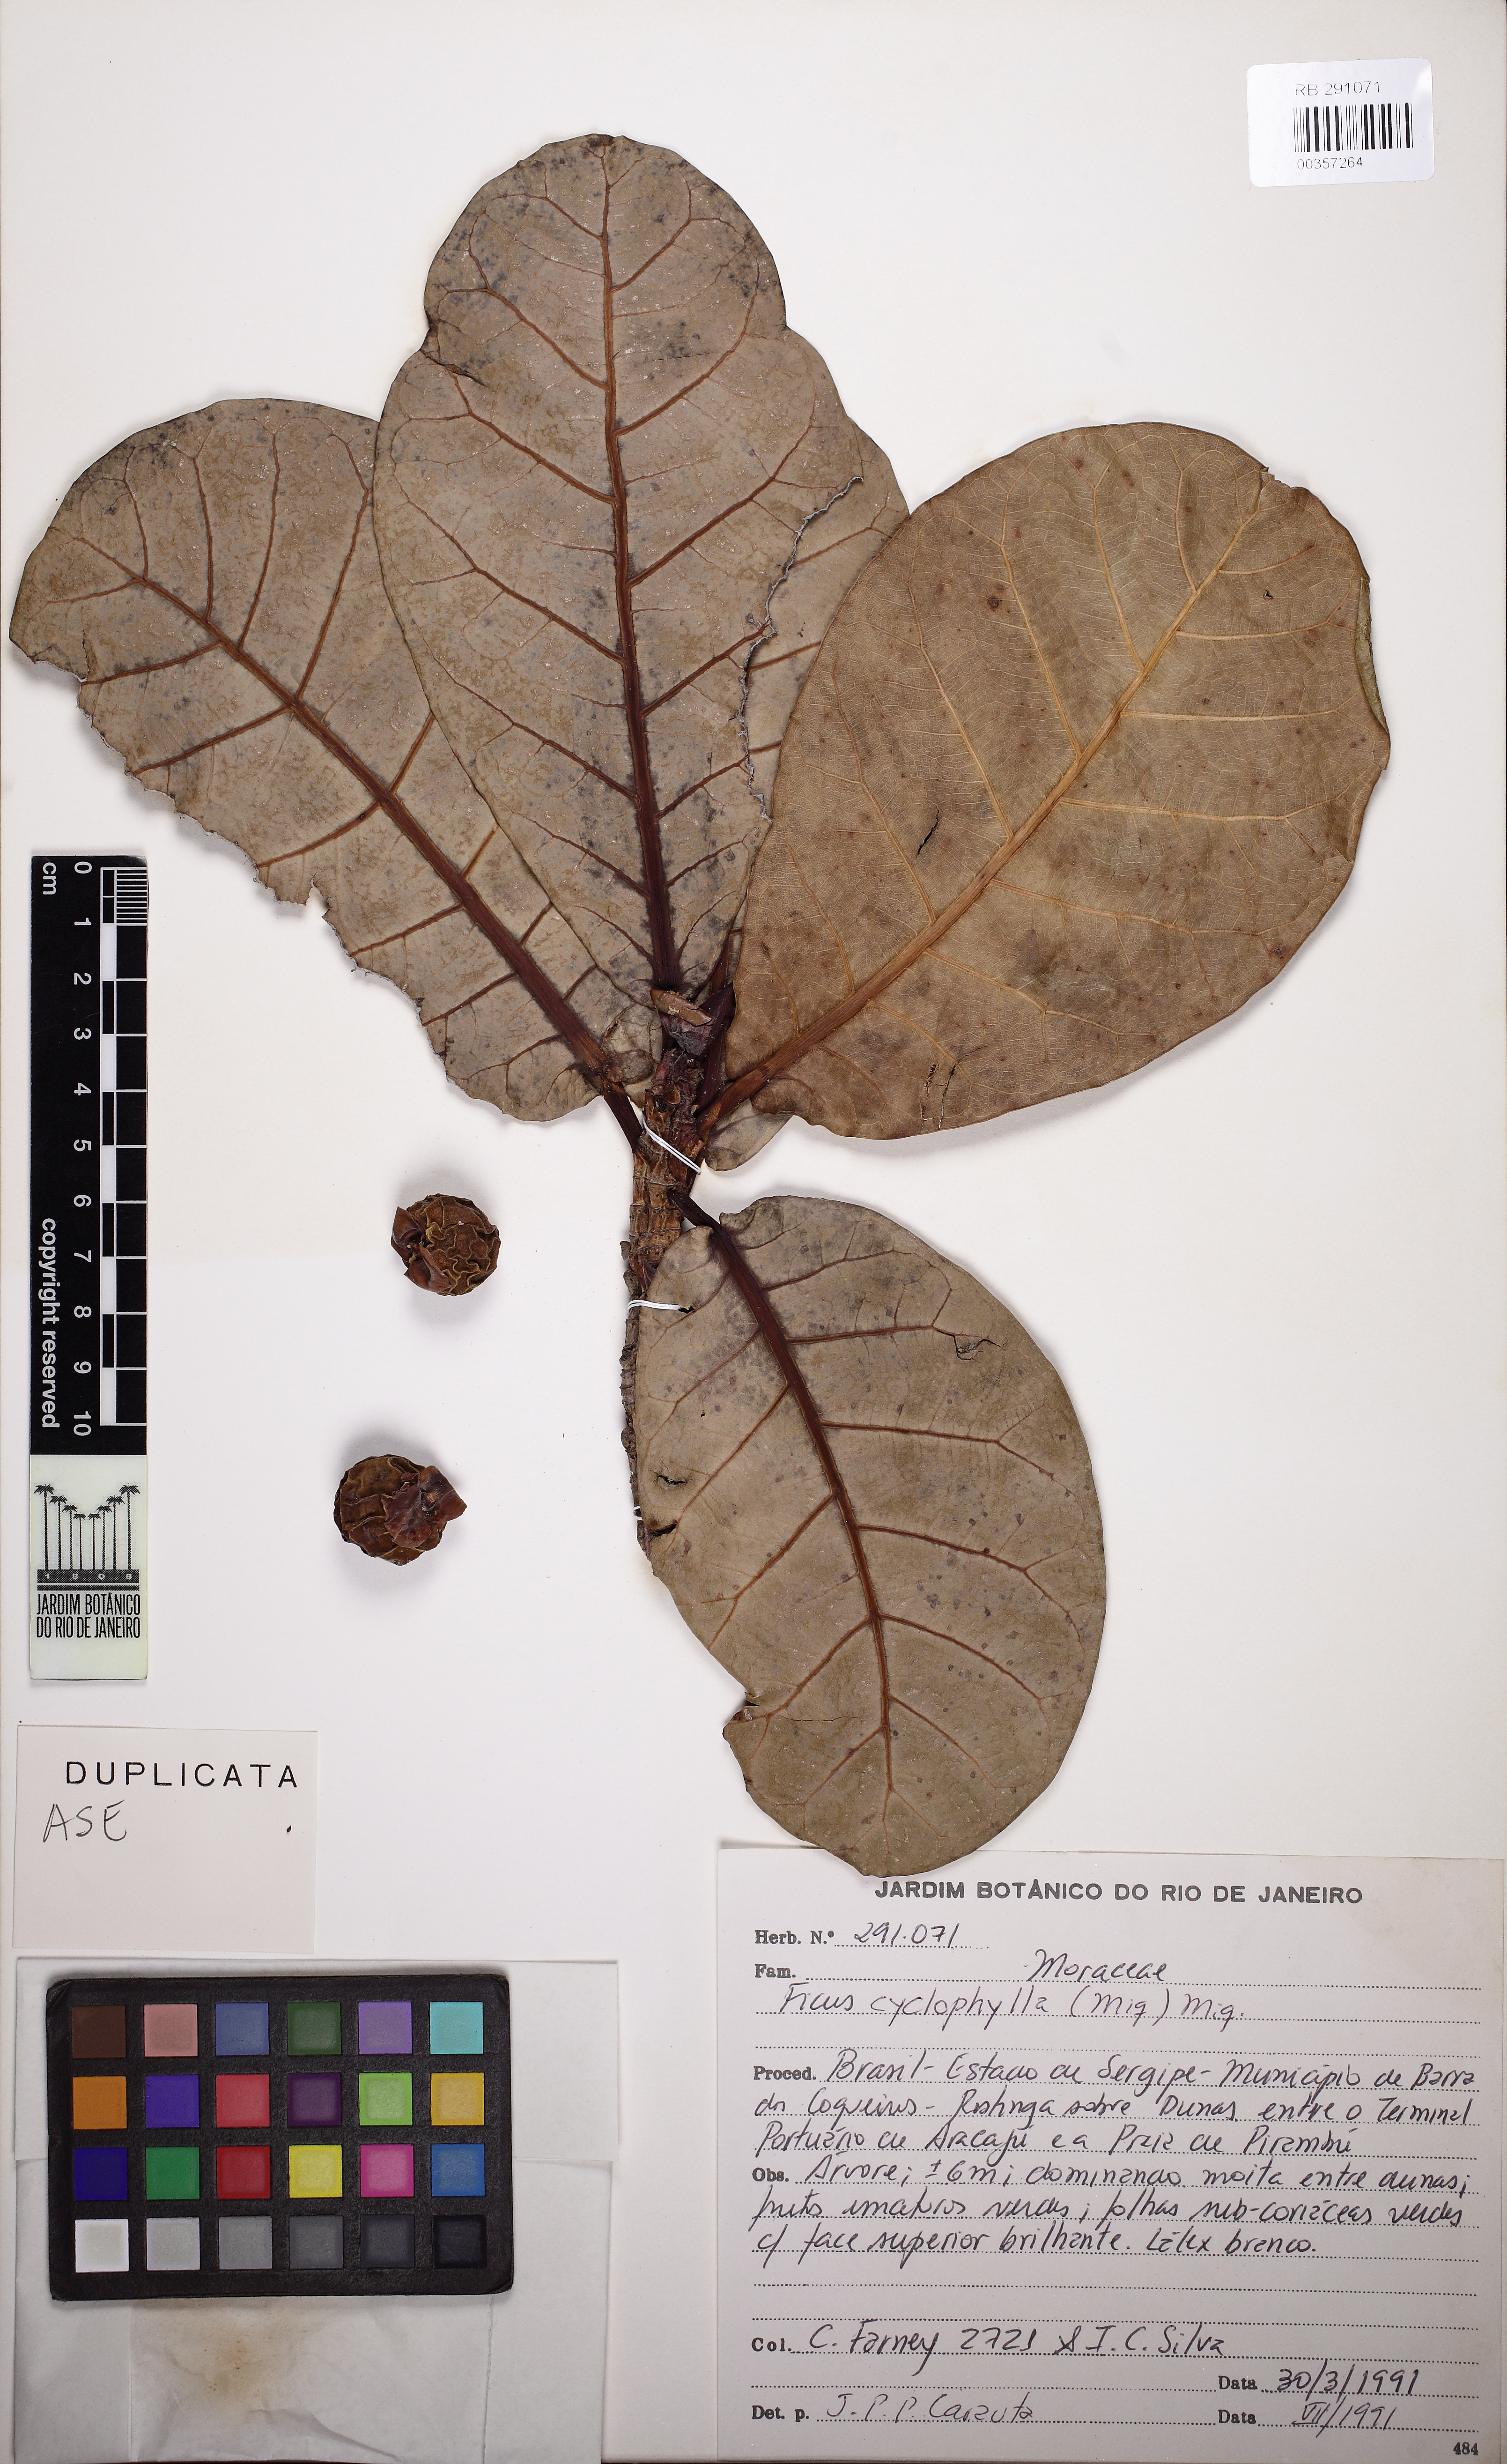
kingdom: Plantae
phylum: Tracheophyta
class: Magnoliopsida
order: Rosales
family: Moraceae
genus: Ficus
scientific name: Ficus cyclophylla
